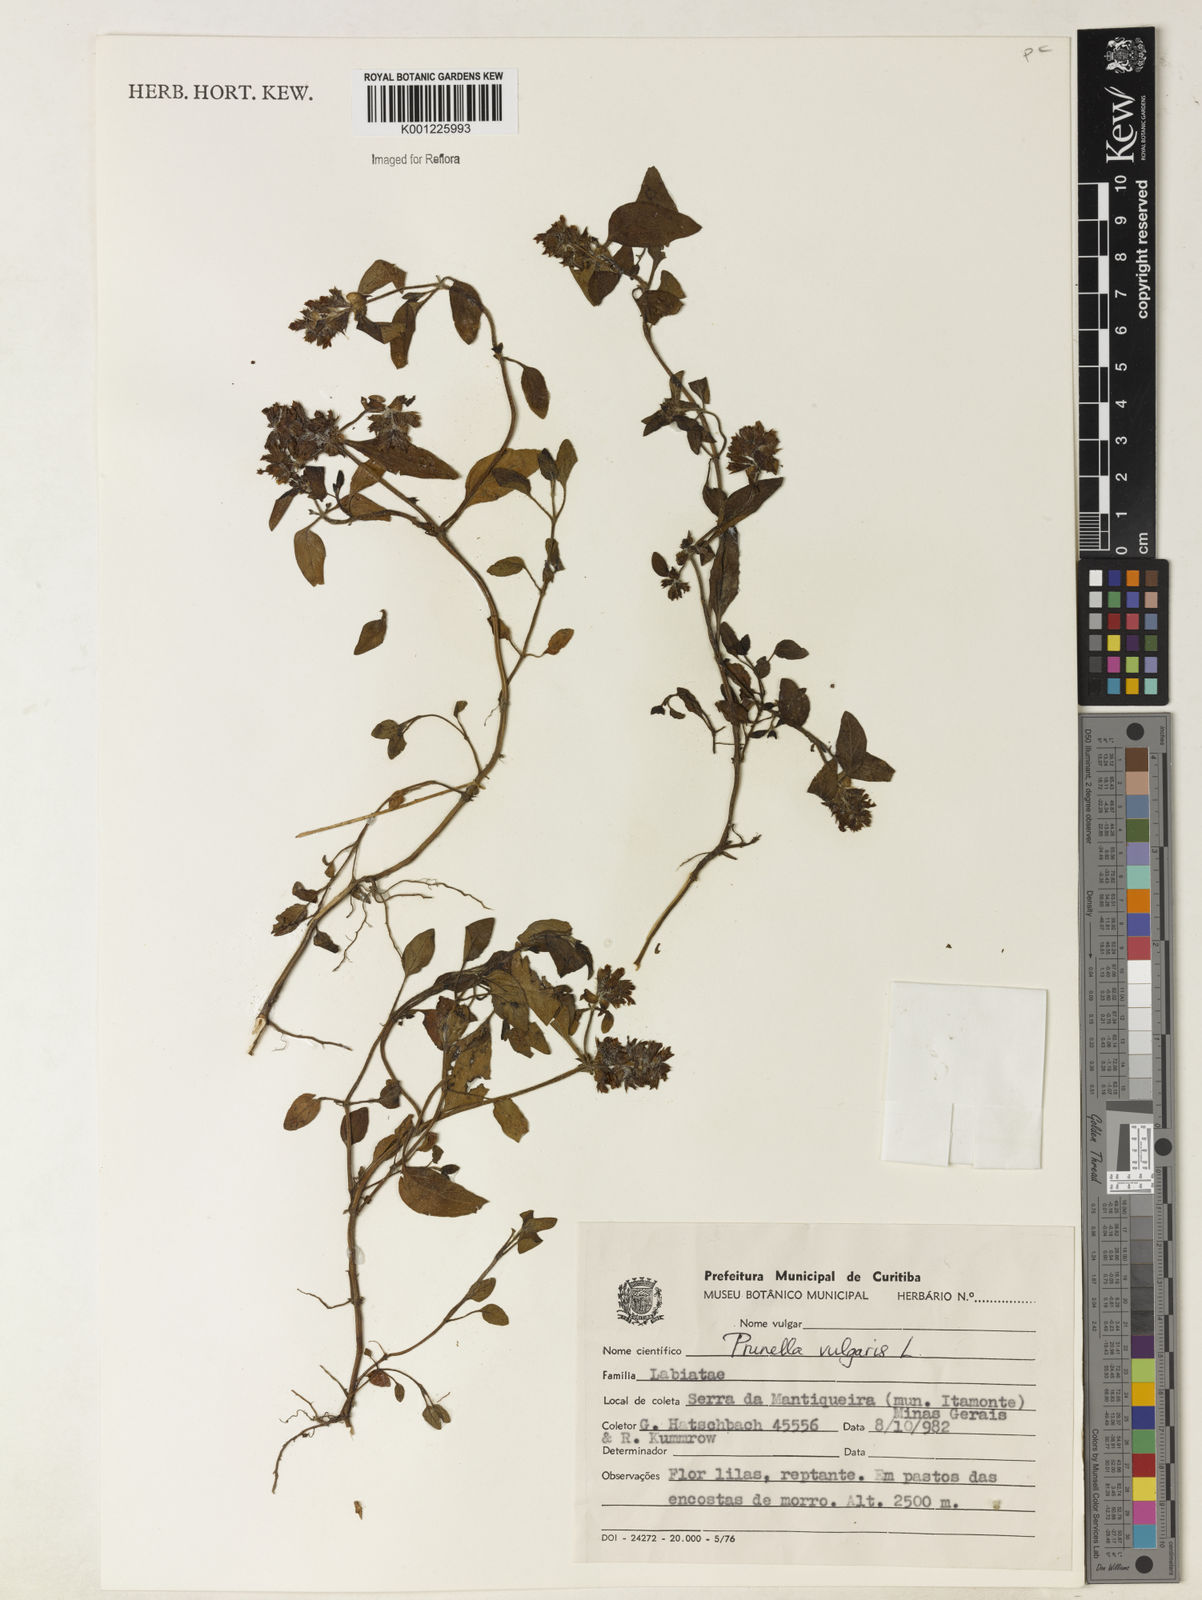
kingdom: Plantae
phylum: Tracheophyta
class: Magnoliopsida
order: Lamiales
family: Lamiaceae
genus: Prunella
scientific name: Prunella vulgaris
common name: Heal-all
